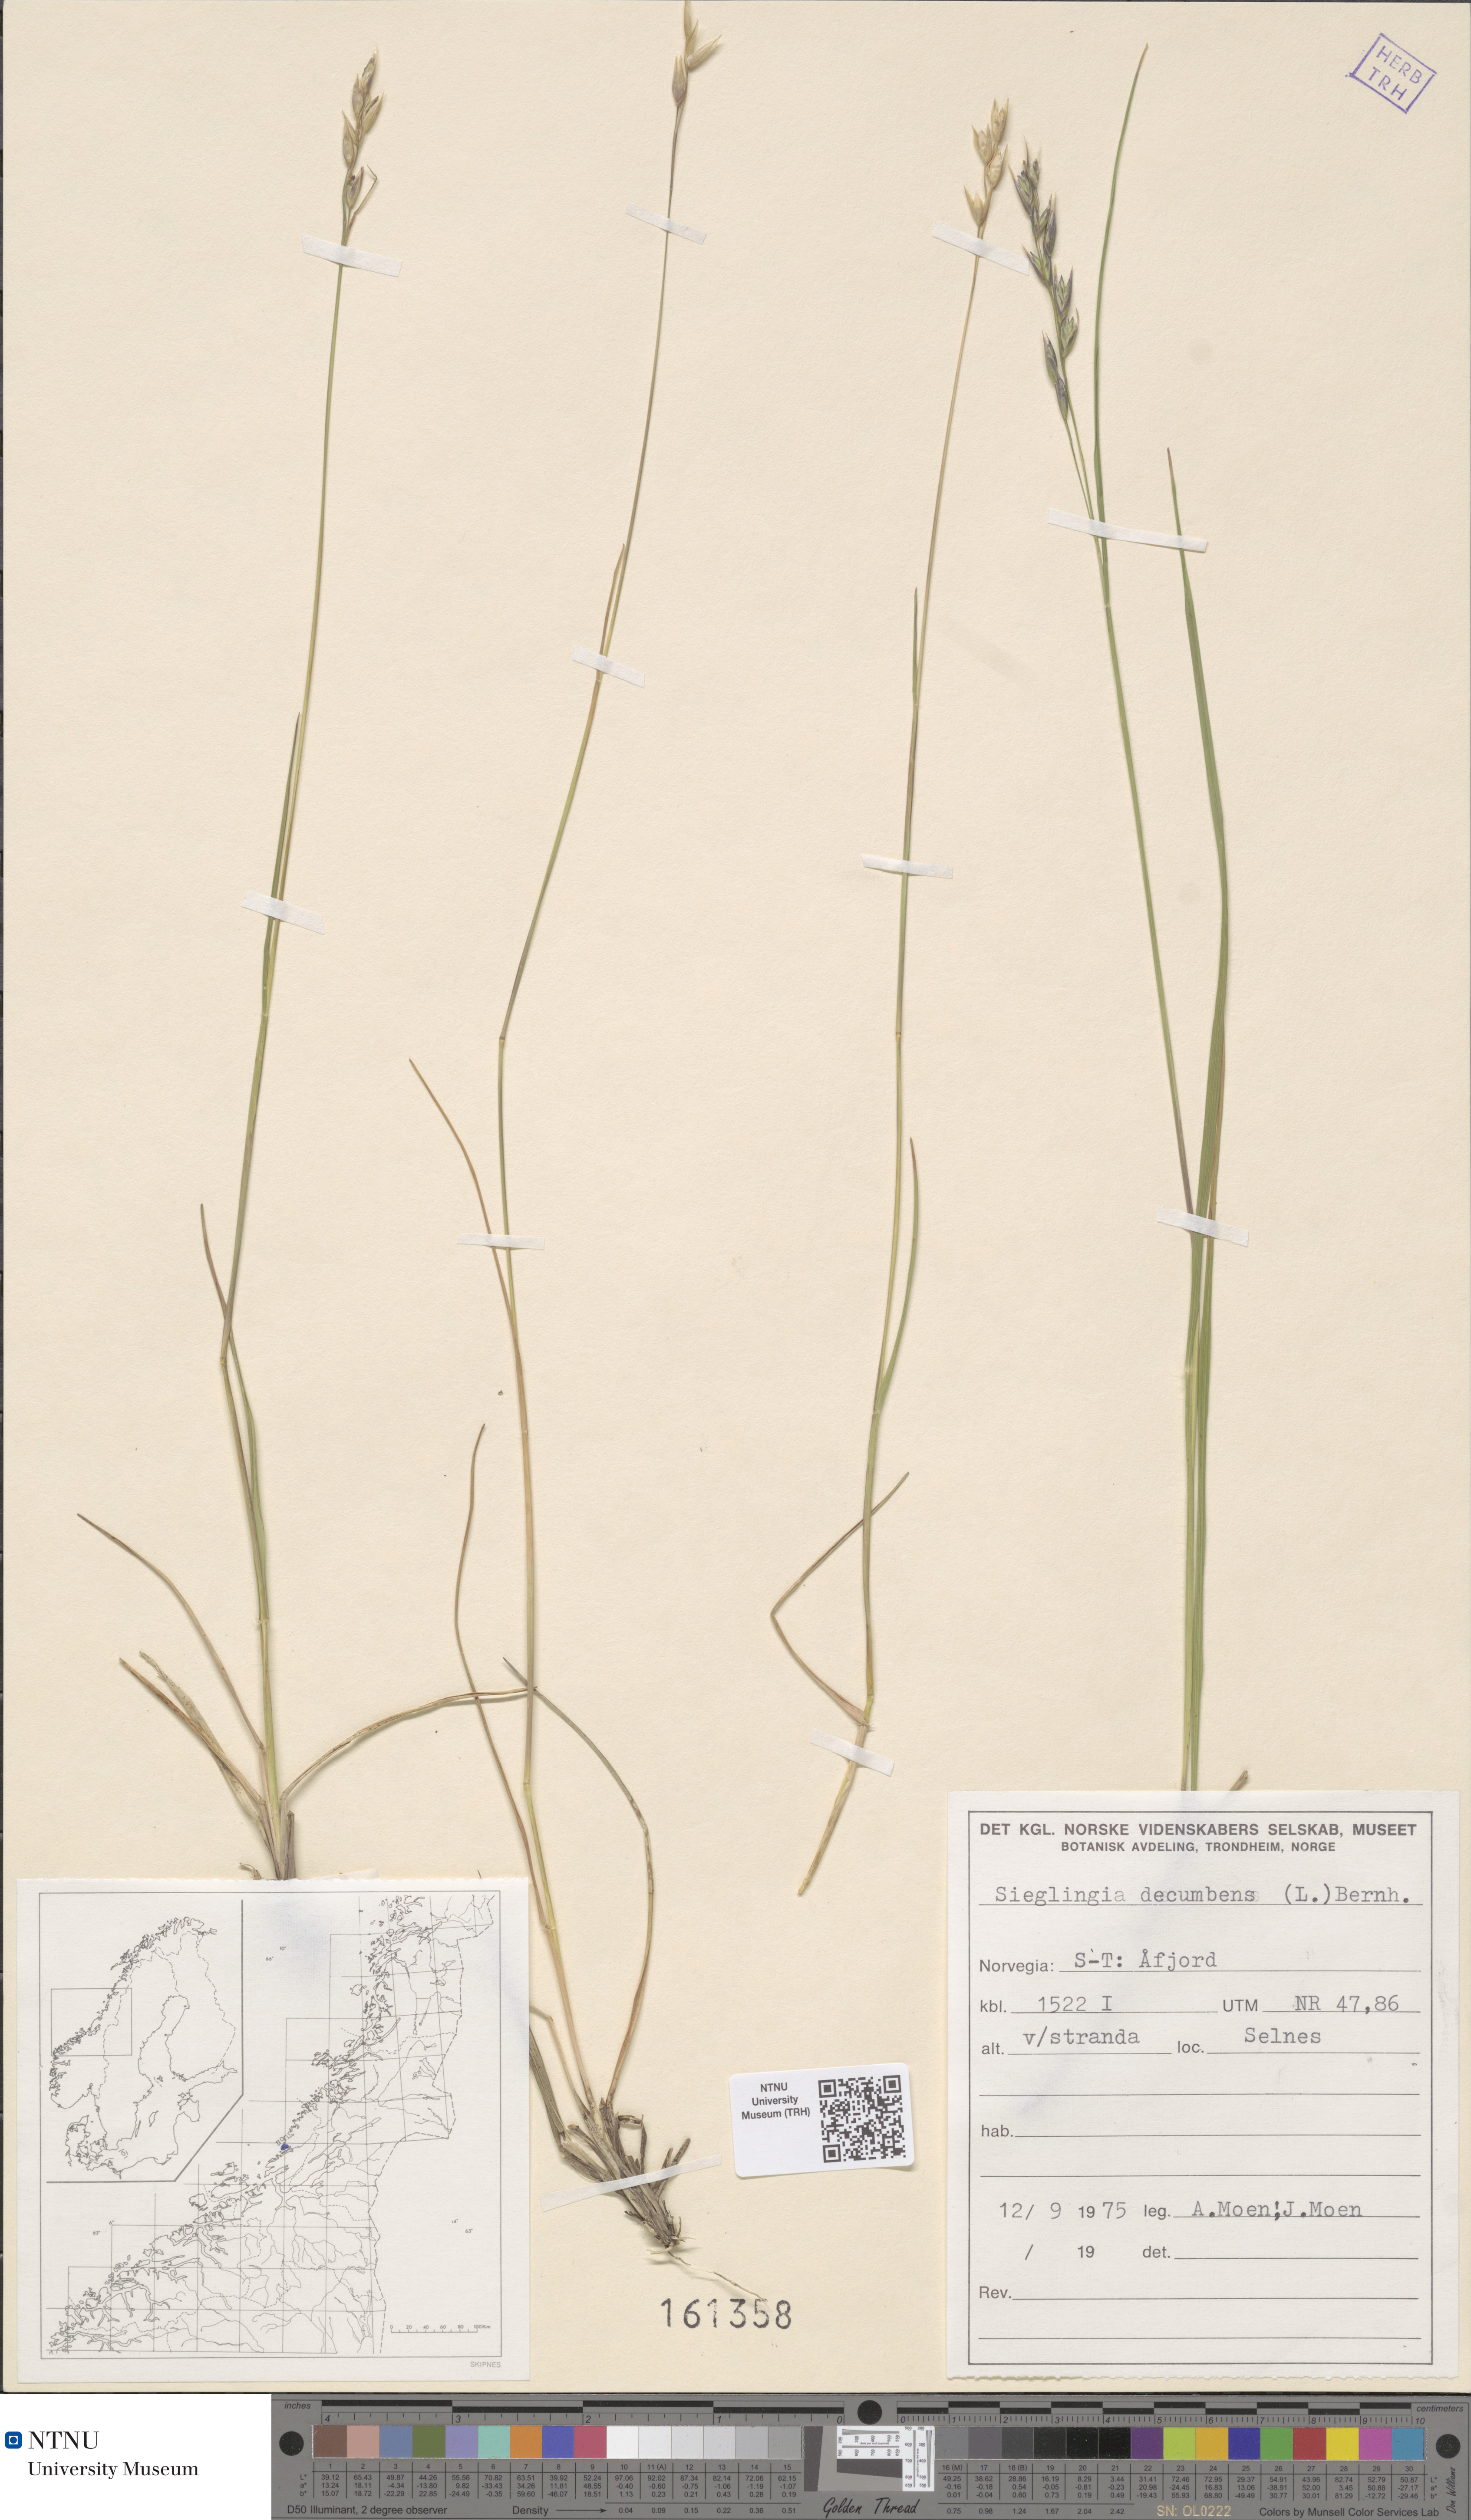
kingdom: Plantae
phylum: Tracheophyta
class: Liliopsida
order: Poales
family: Poaceae
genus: Danthonia
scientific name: Danthonia decumbens
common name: Common heathgrass
